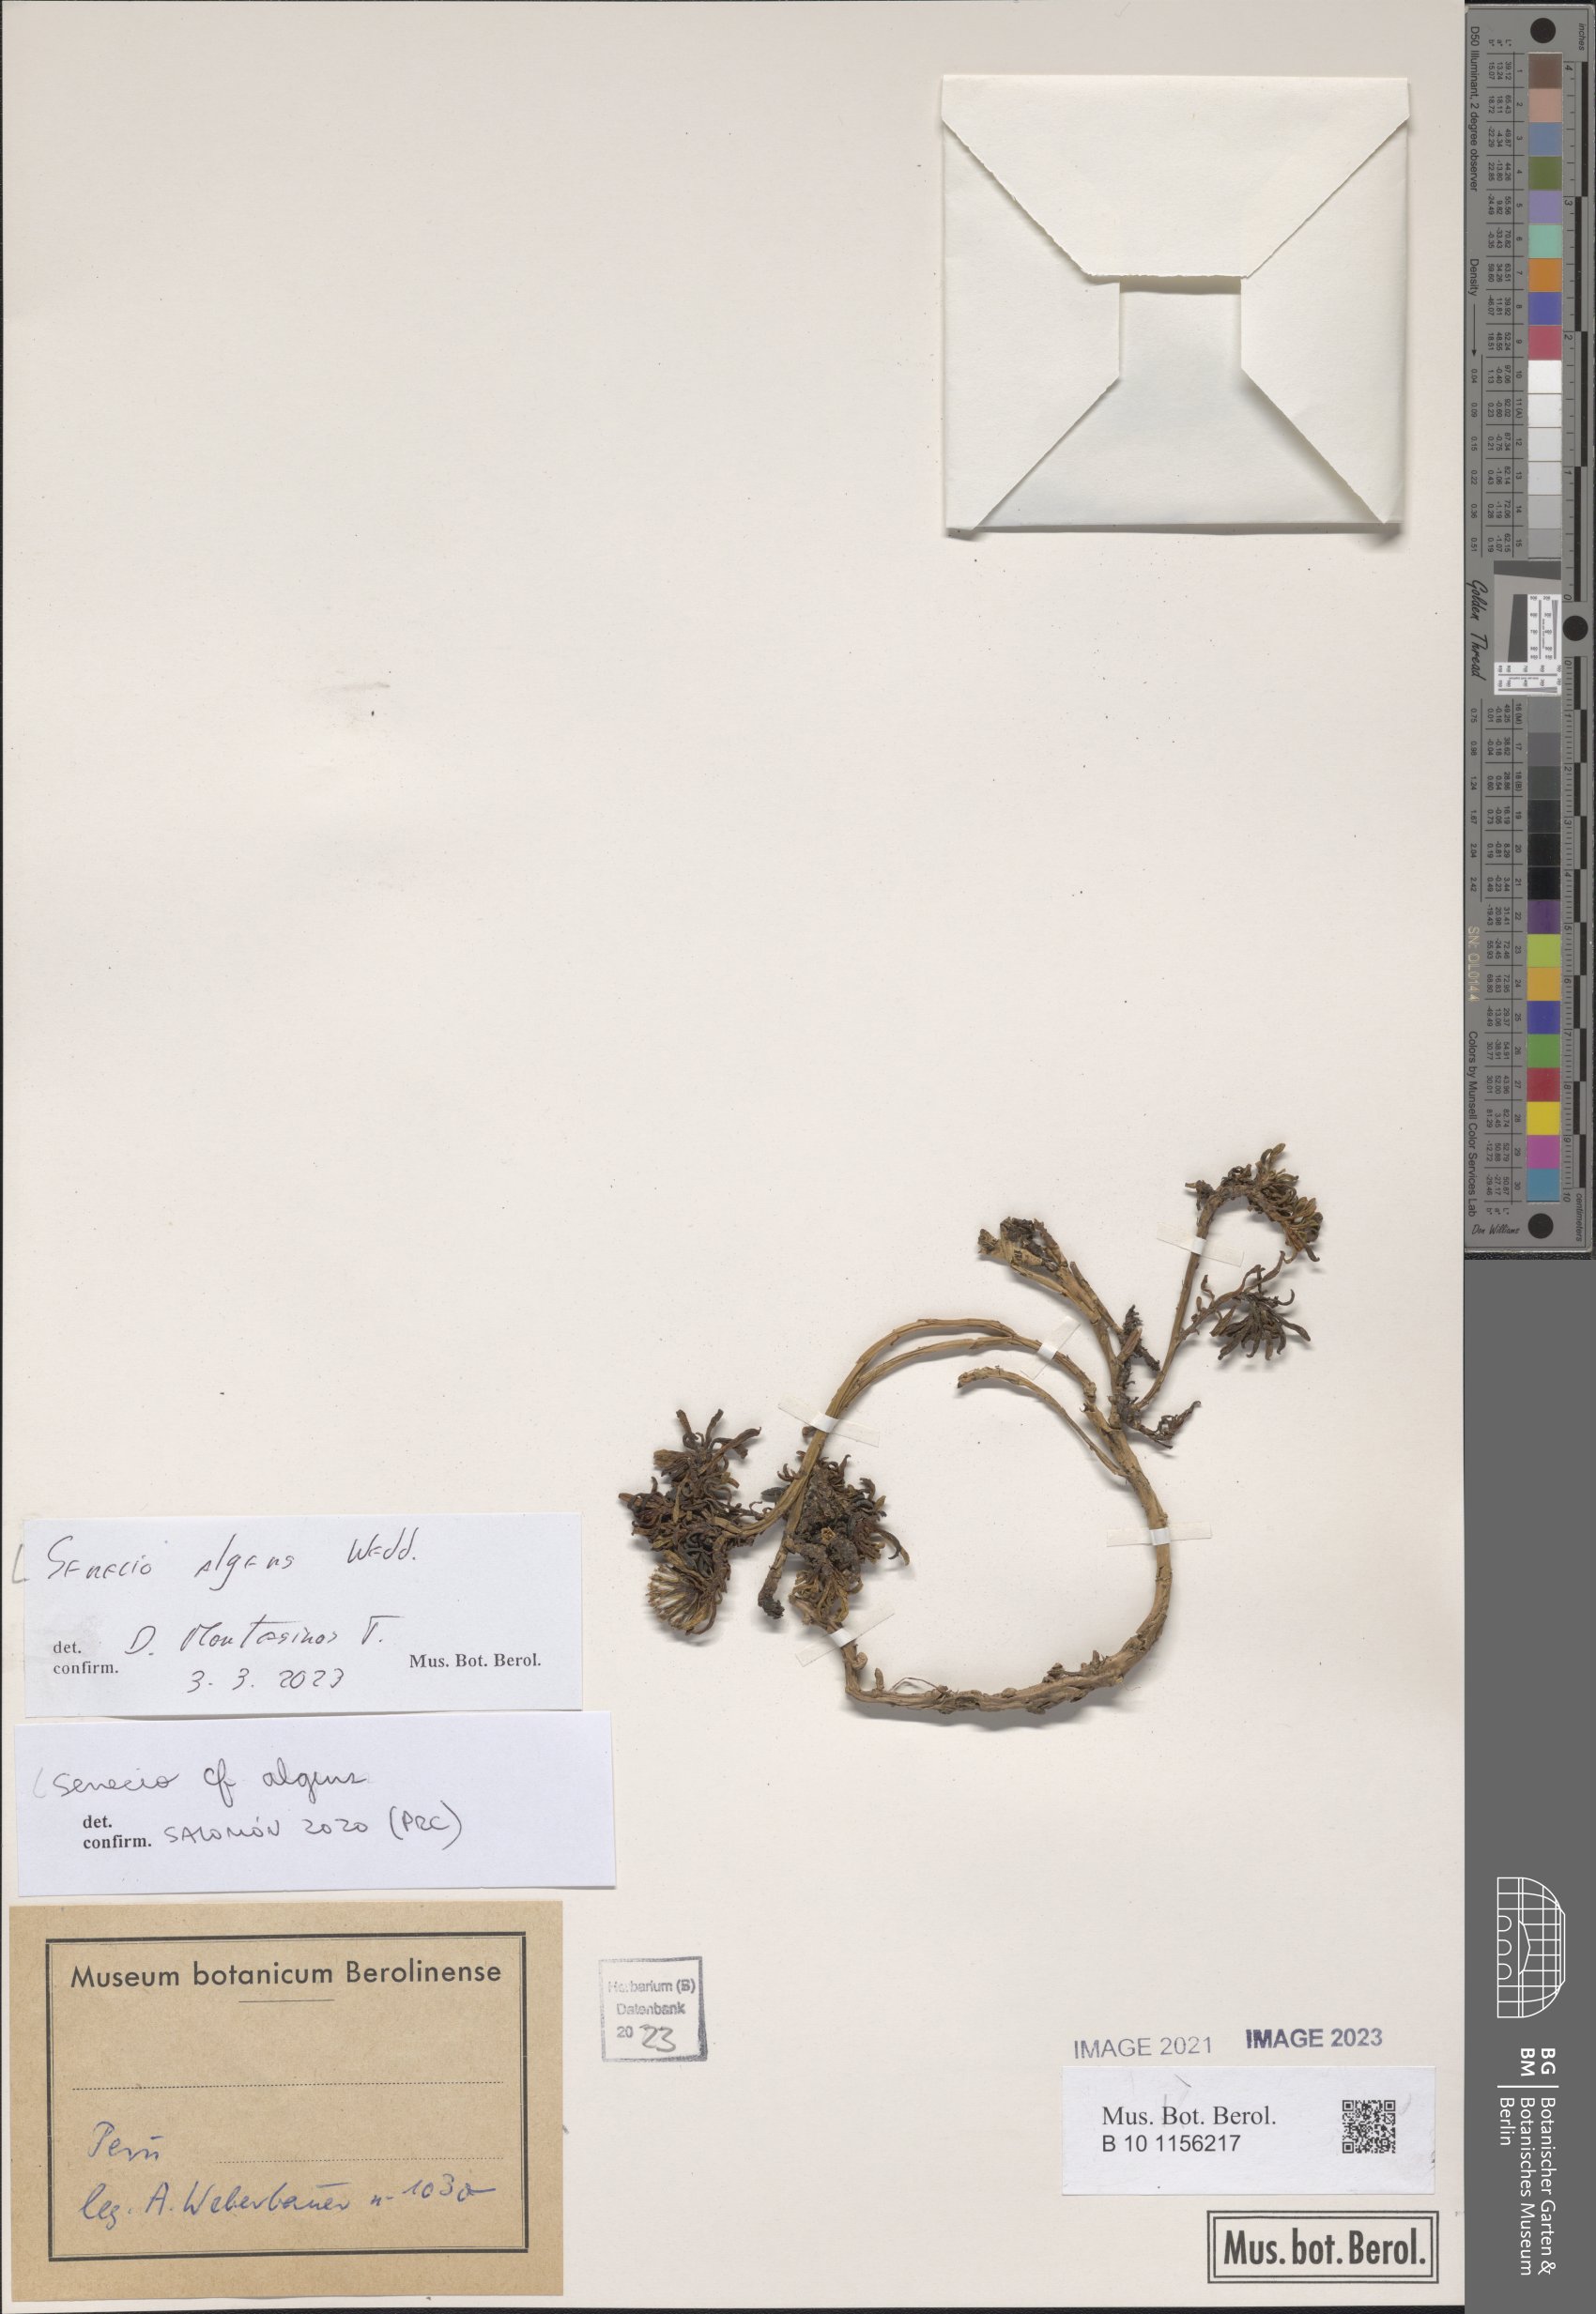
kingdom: Plantae
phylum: Tracheophyta
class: Magnoliopsida
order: Asterales
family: Asteraceae
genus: Senecio
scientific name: Senecio algens
